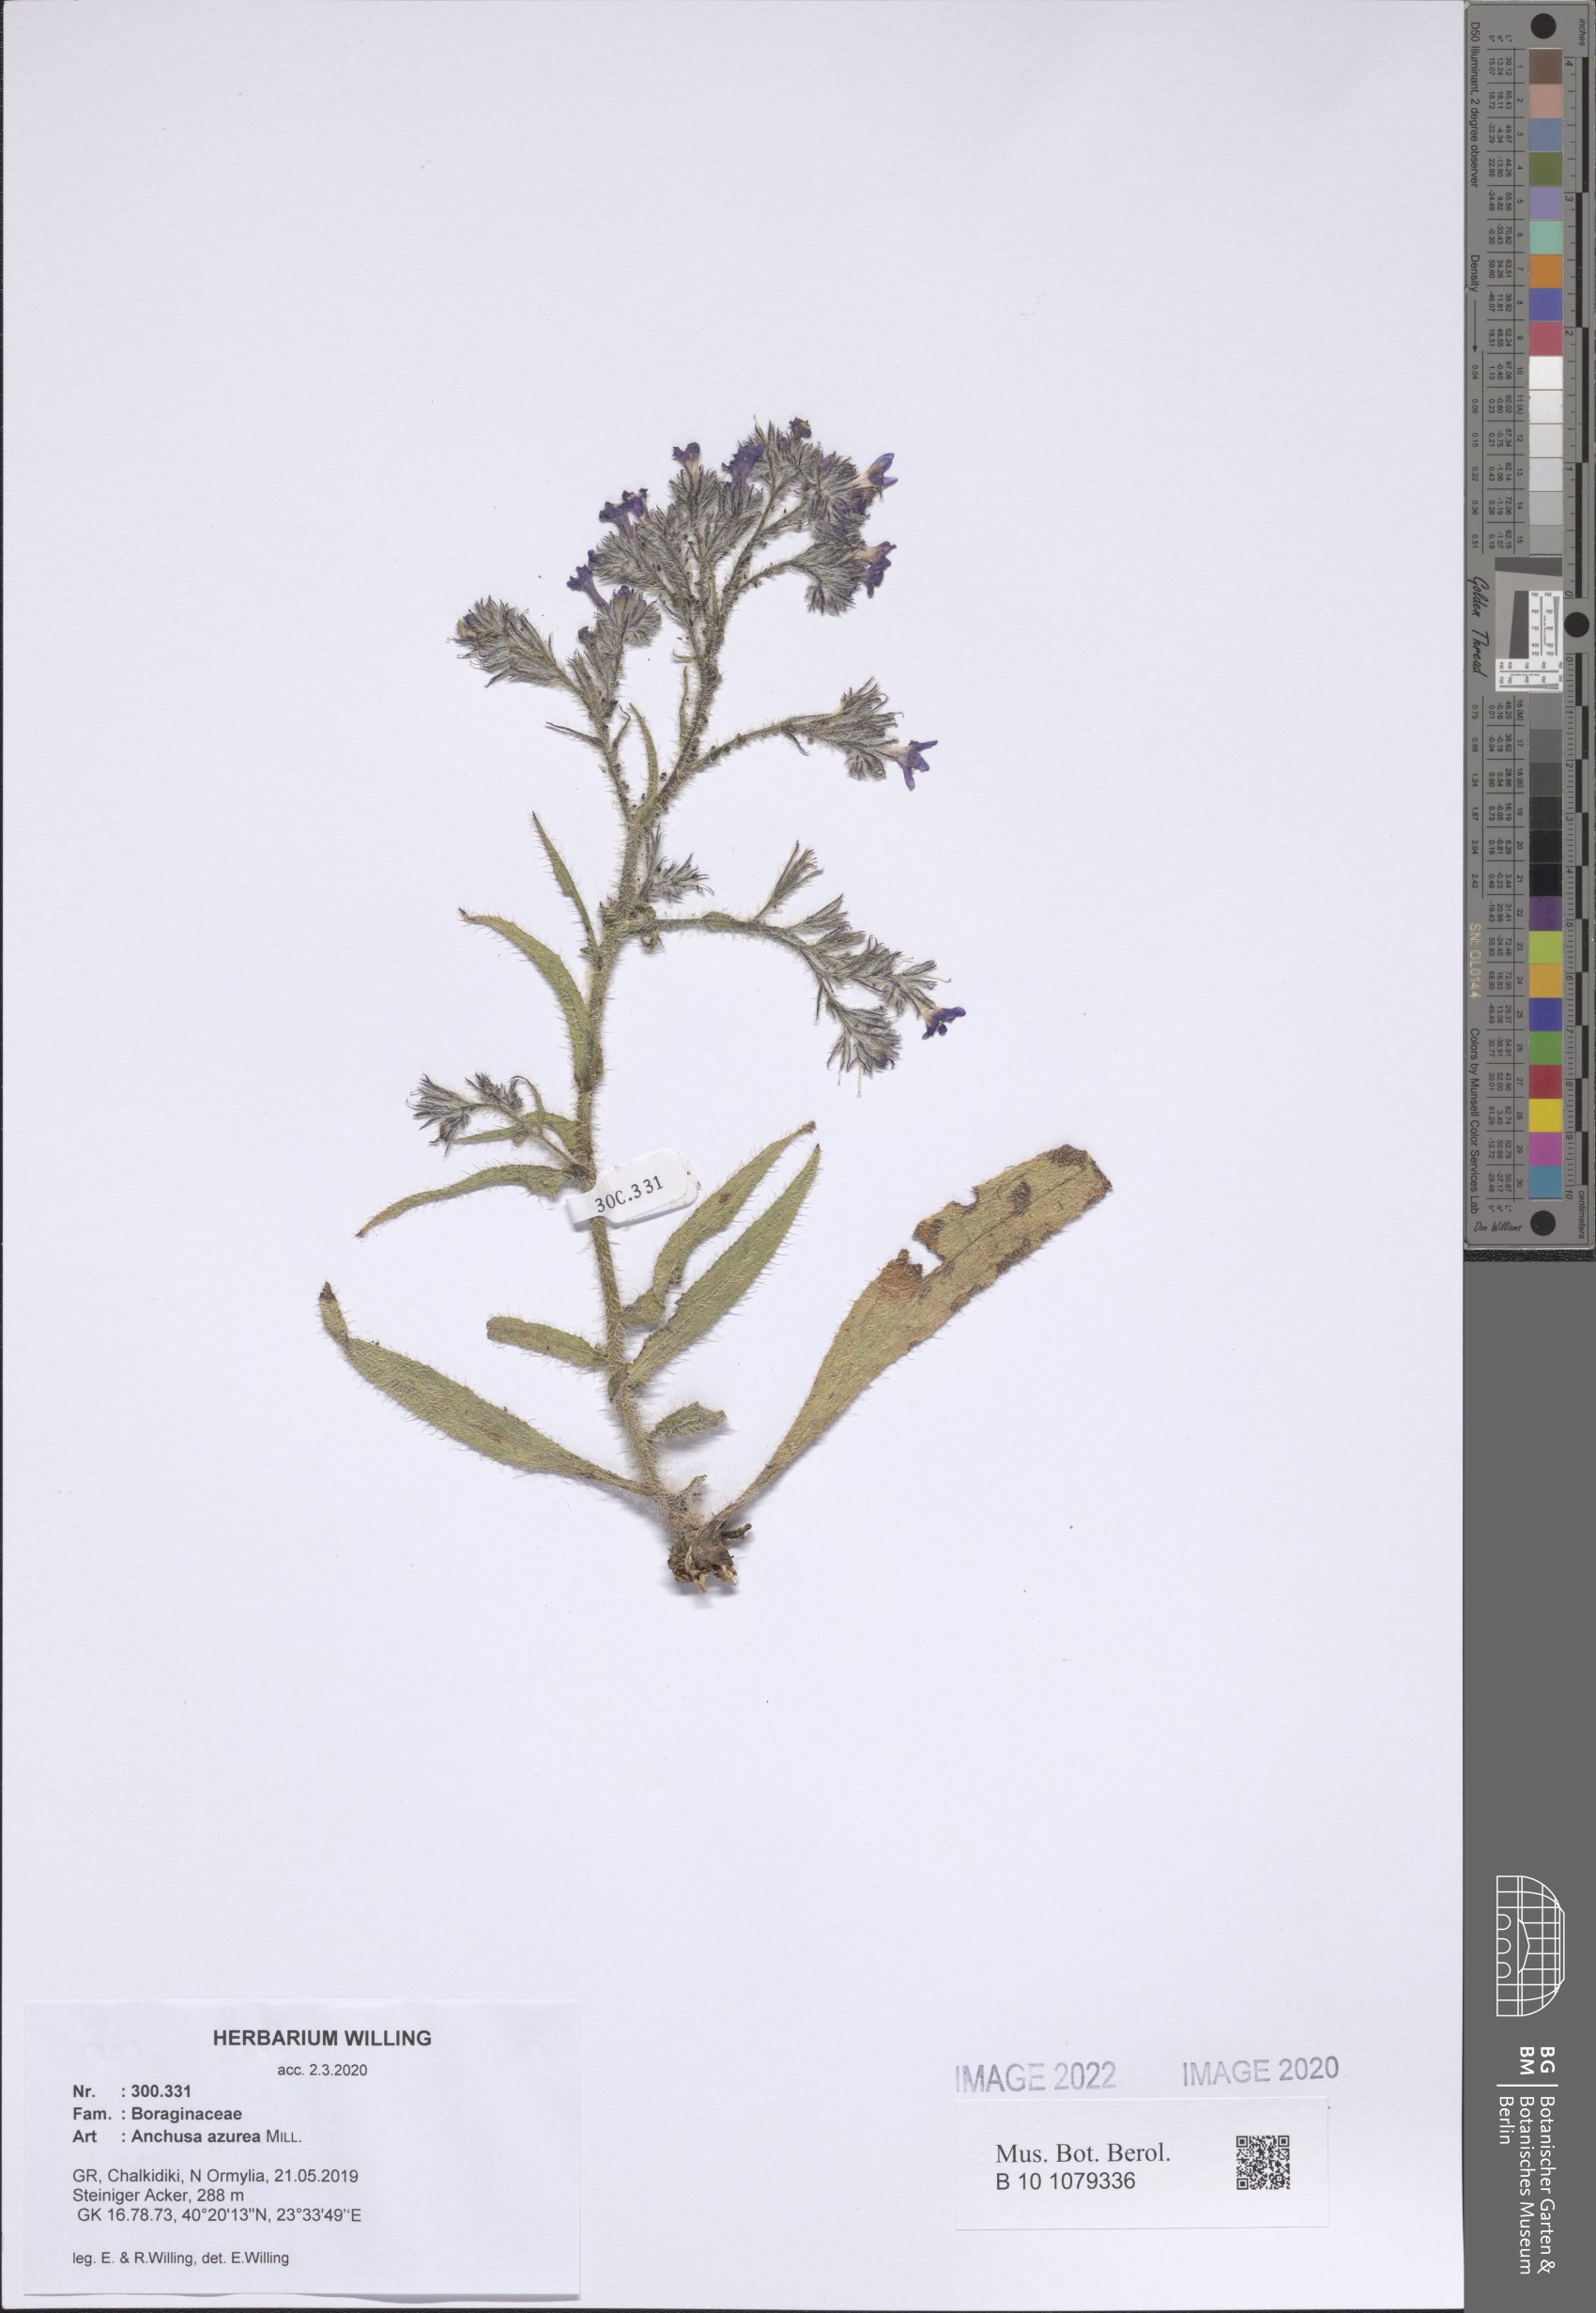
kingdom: Plantae
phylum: Tracheophyta
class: Magnoliopsida
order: Boraginales
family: Boraginaceae
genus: Anchusa
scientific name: Anchusa azurea
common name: Garden anchusa
